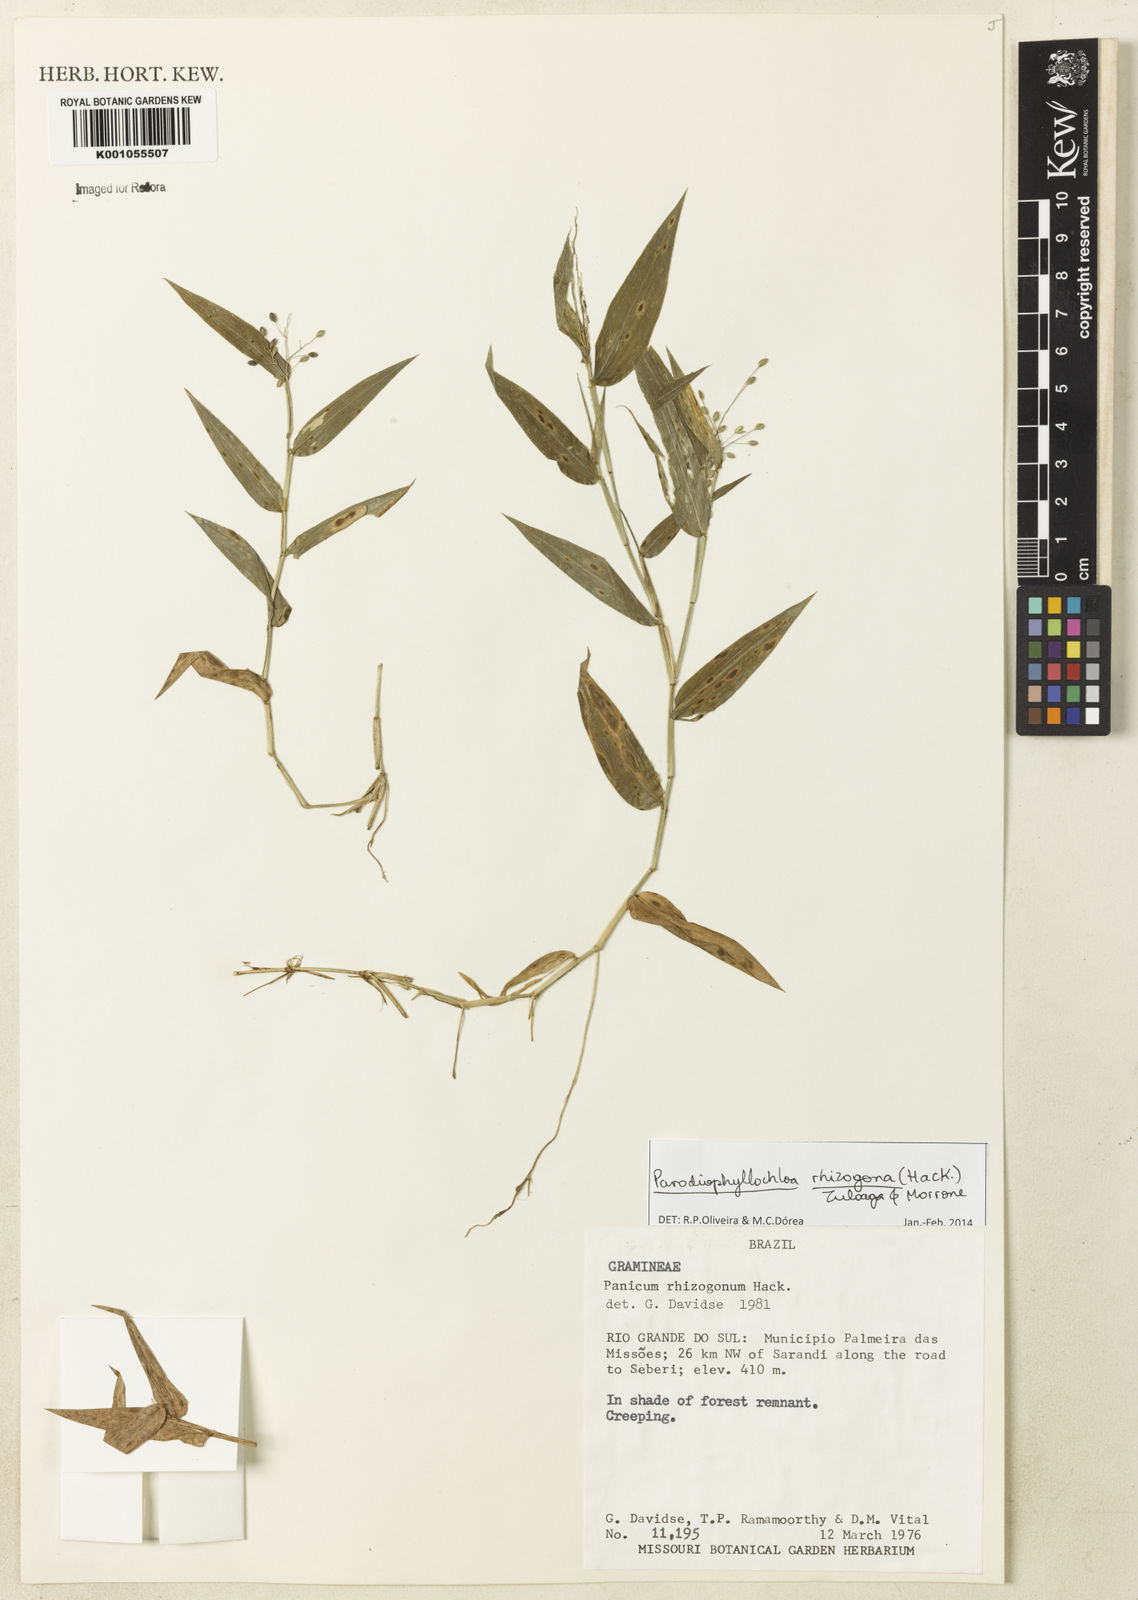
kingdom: Plantae
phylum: Tracheophyta
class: Liliopsida
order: Poales
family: Poaceae
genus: Parodiophyllochloa
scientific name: Parodiophyllochloa rhizogona
